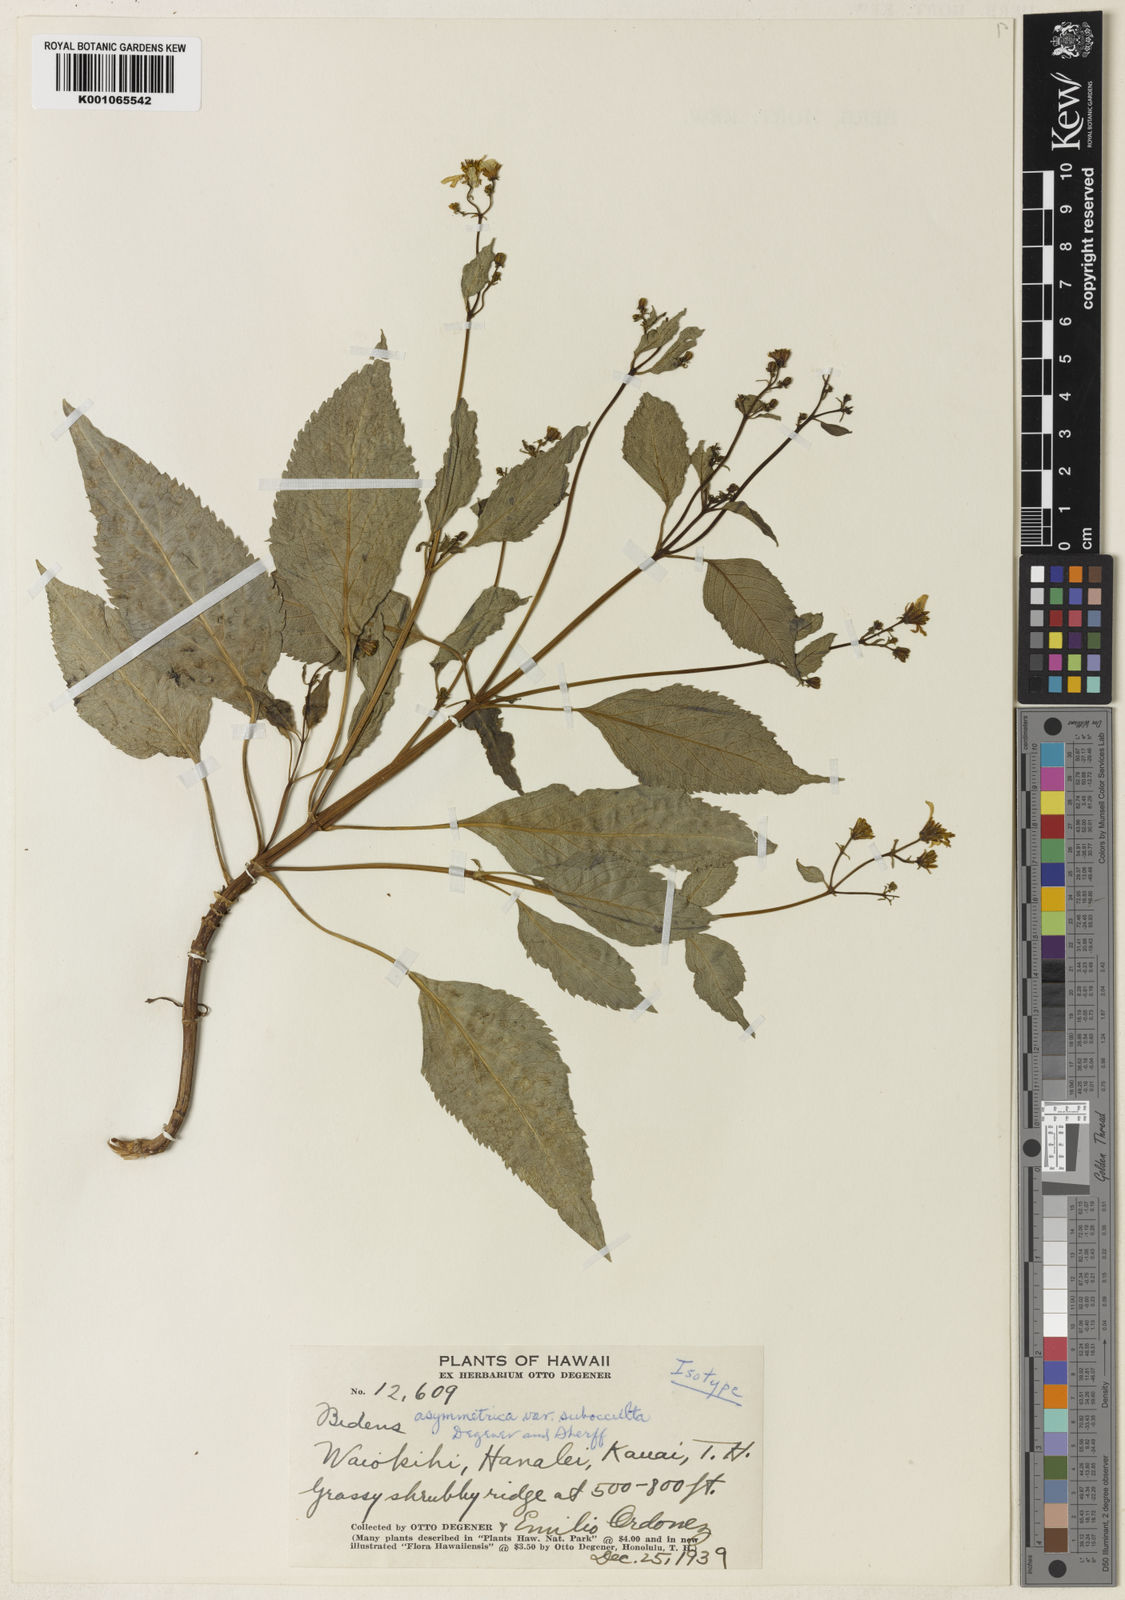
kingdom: Plantae
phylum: Tracheophyta
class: Magnoliopsida
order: Asterales
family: Asteraceae
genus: Bidens
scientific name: Bidens
